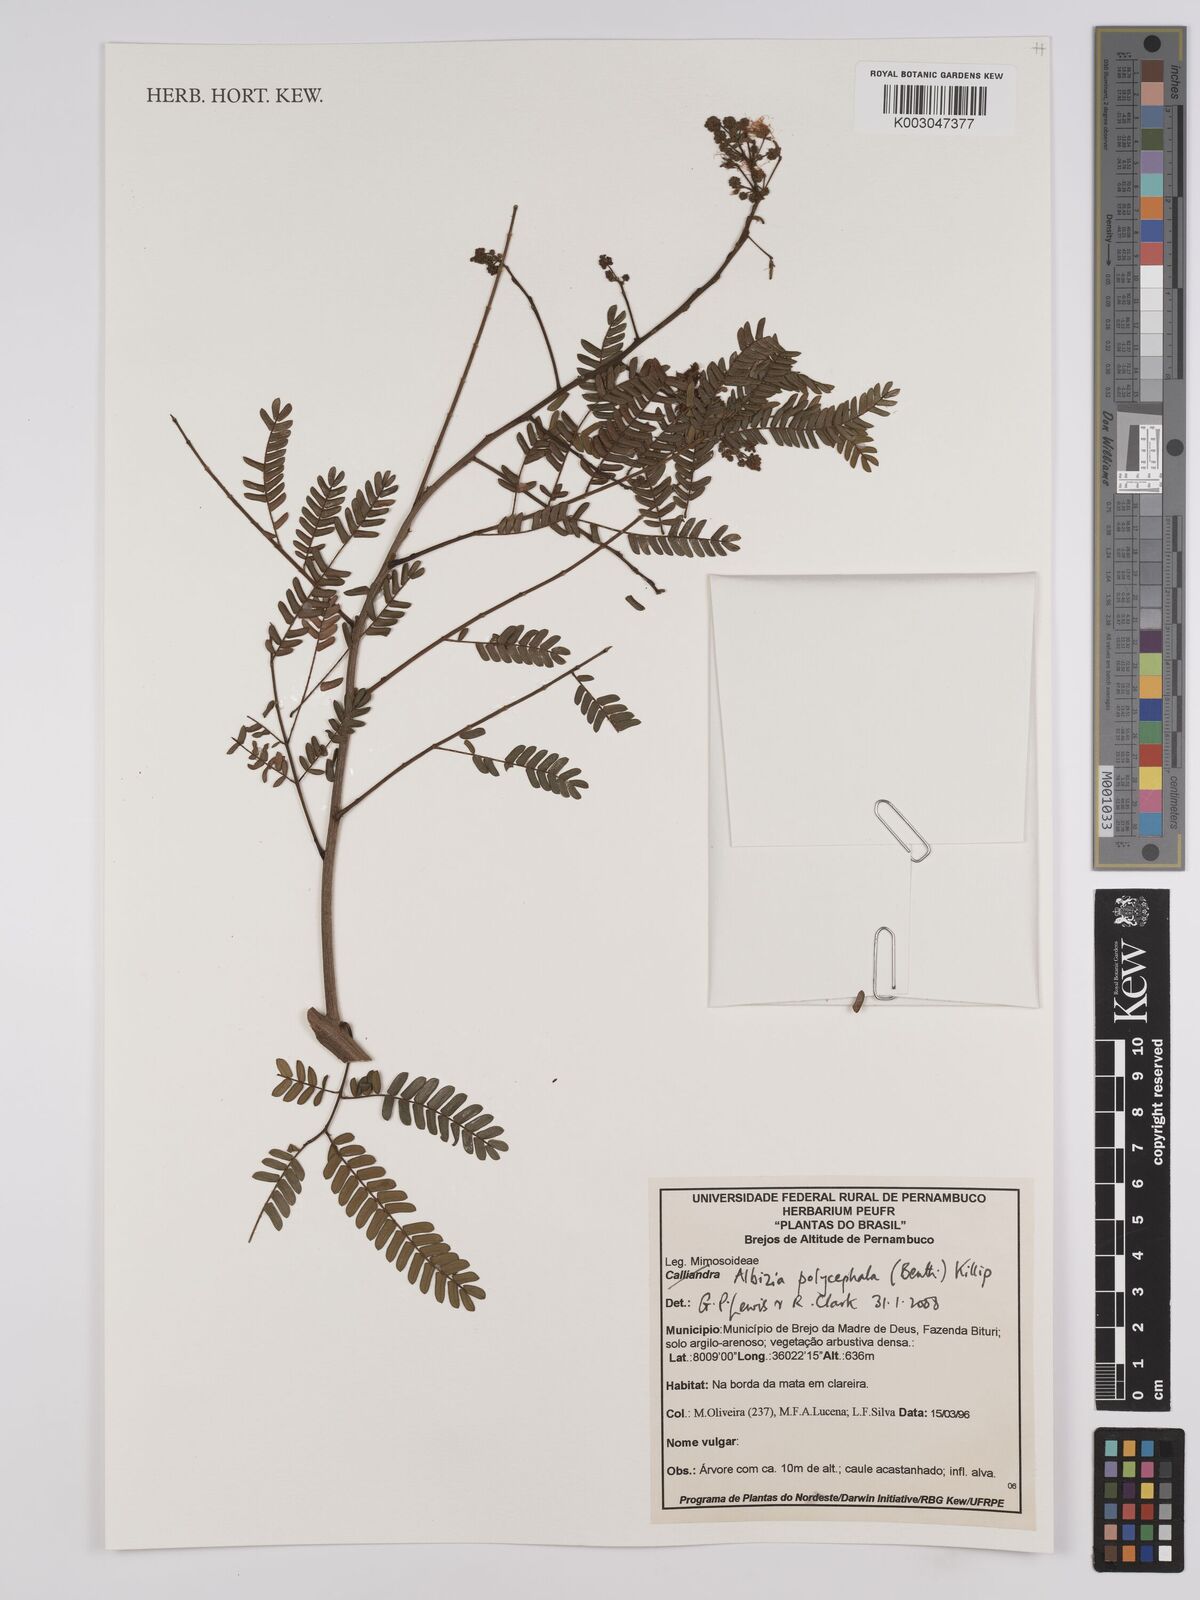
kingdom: Plantae
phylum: Tracheophyta
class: Magnoliopsida
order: Fabales
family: Fabaceae
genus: Albizia
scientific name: Albizia polycephala
